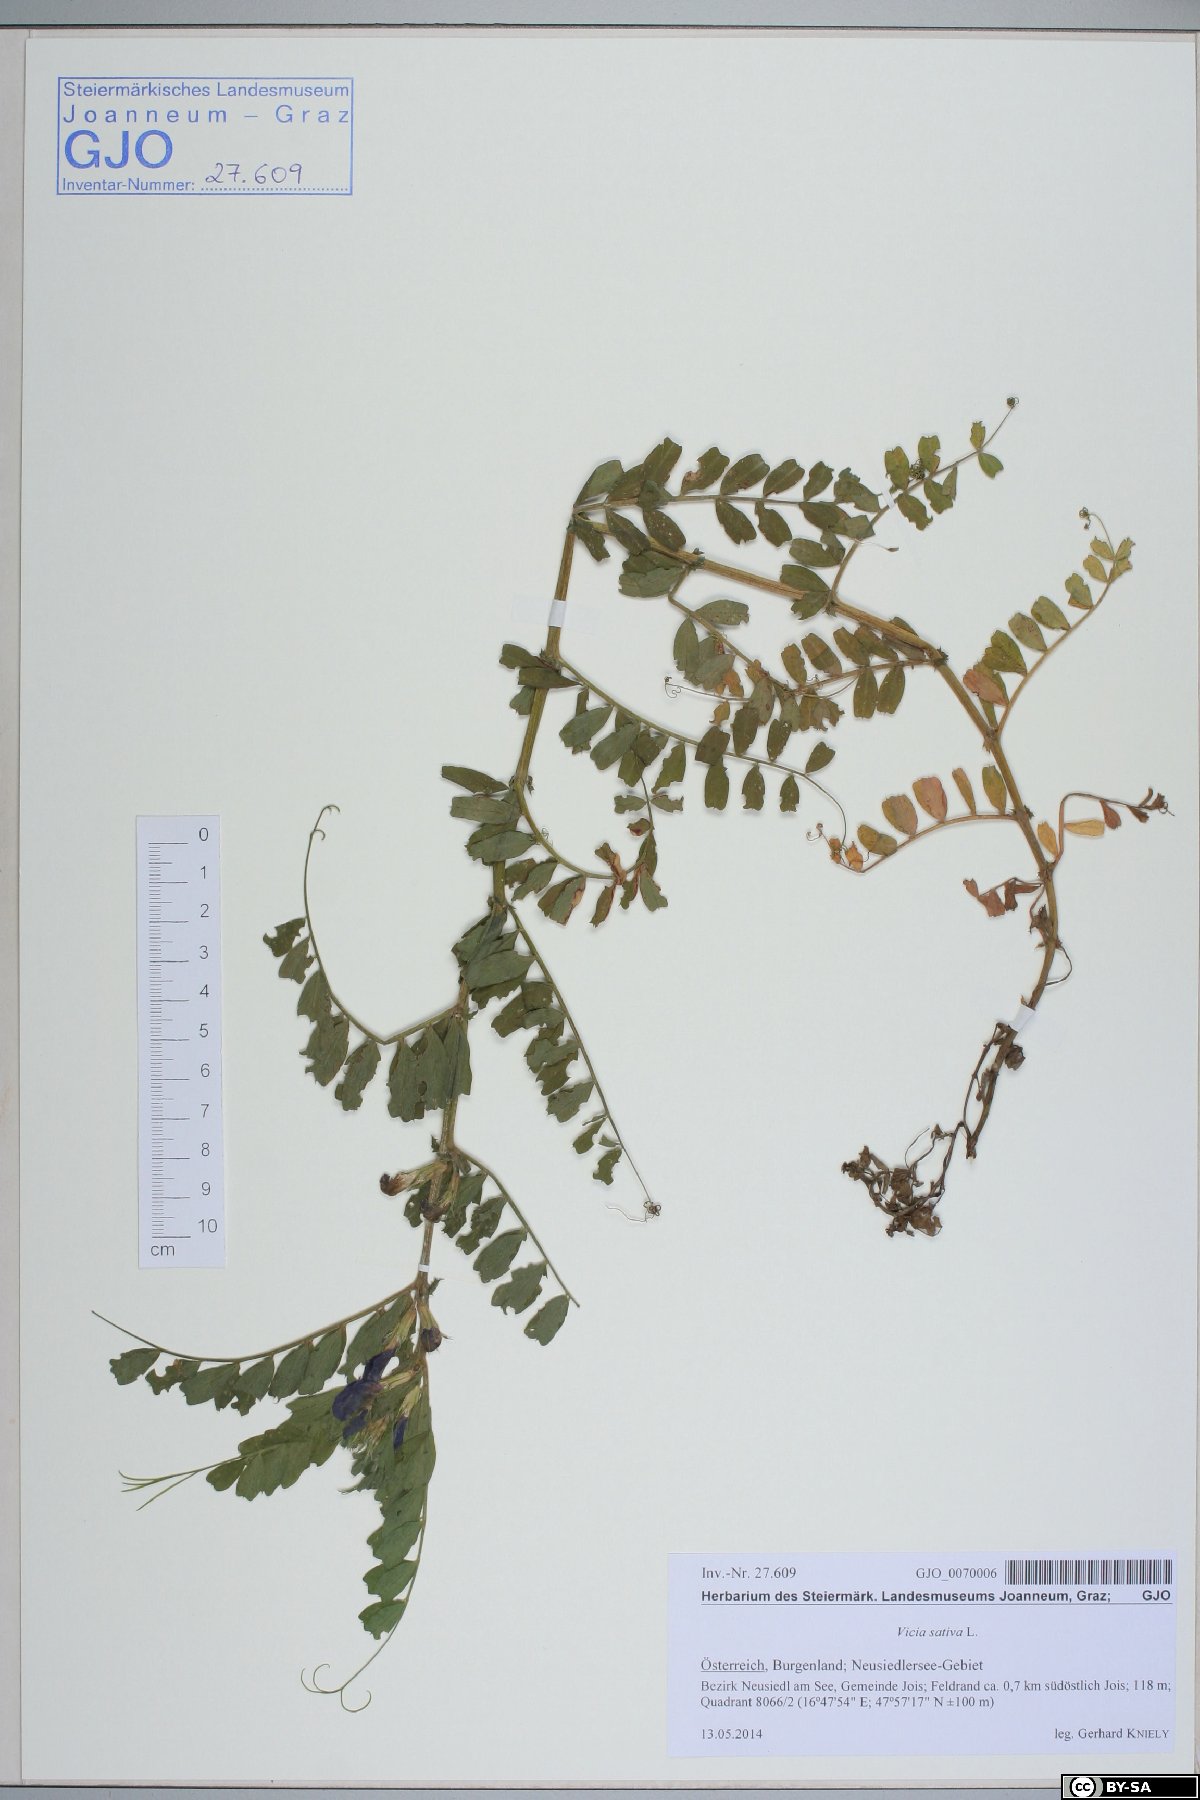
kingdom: Plantae
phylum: Tracheophyta
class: Magnoliopsida
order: Fabales
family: Fabaceae
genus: Vicia
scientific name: Vicia sativa
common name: Garden vetch
